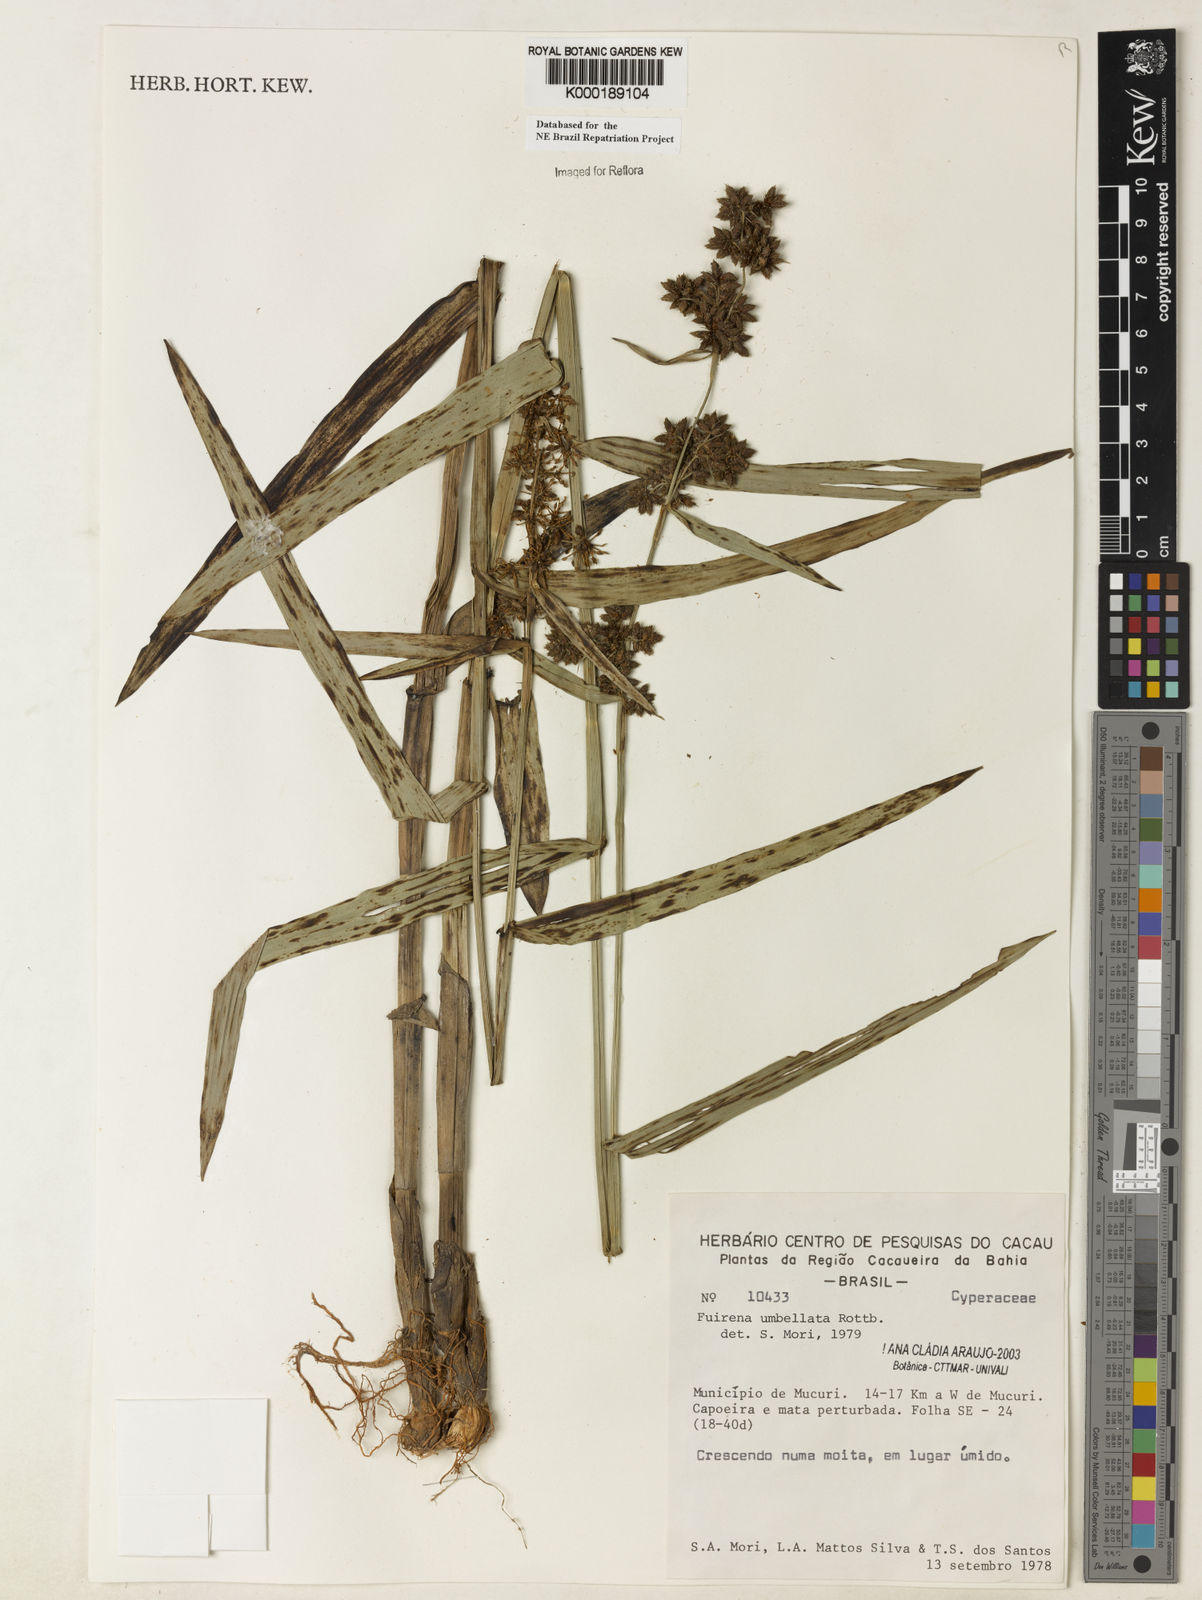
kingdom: Plantae
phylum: Tracheophyta
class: Liliopsida
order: Poales
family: Cyperaceae
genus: Fuirena
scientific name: Fuirena umbellata
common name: Yefen
